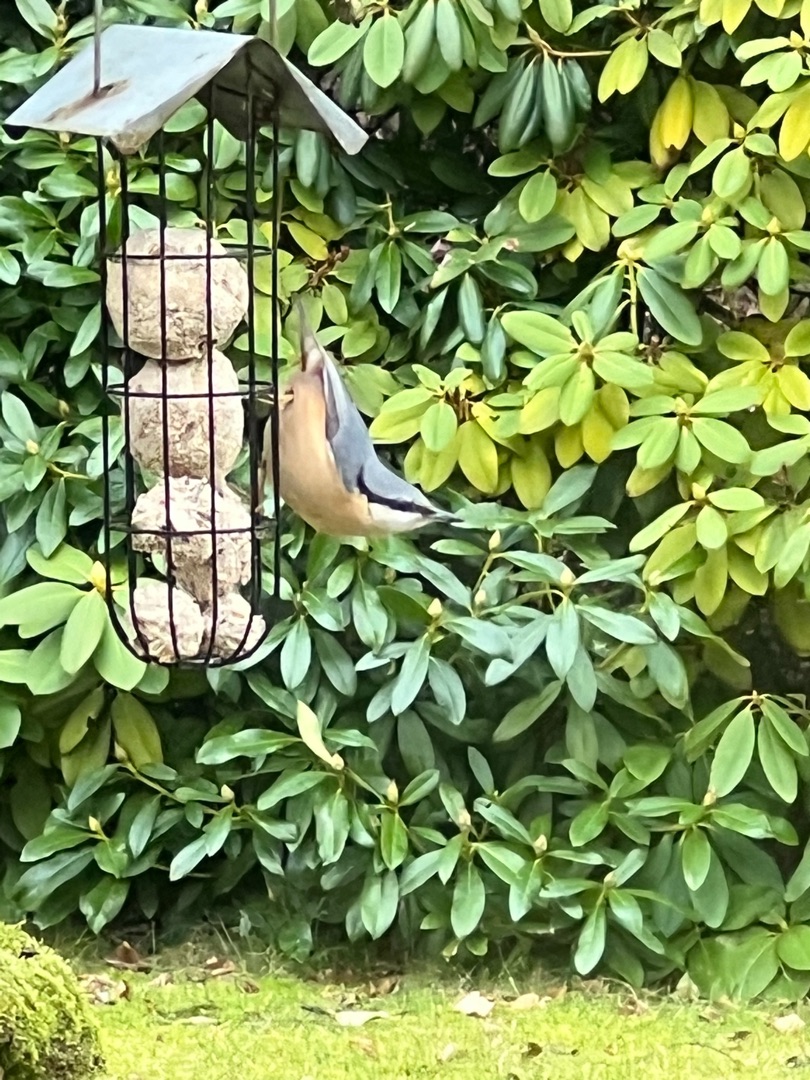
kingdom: Animalia
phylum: Chordata
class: Aves
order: Passeriformes
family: Sittidae
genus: Sitta
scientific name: Sitta europaea
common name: Spætmejse
